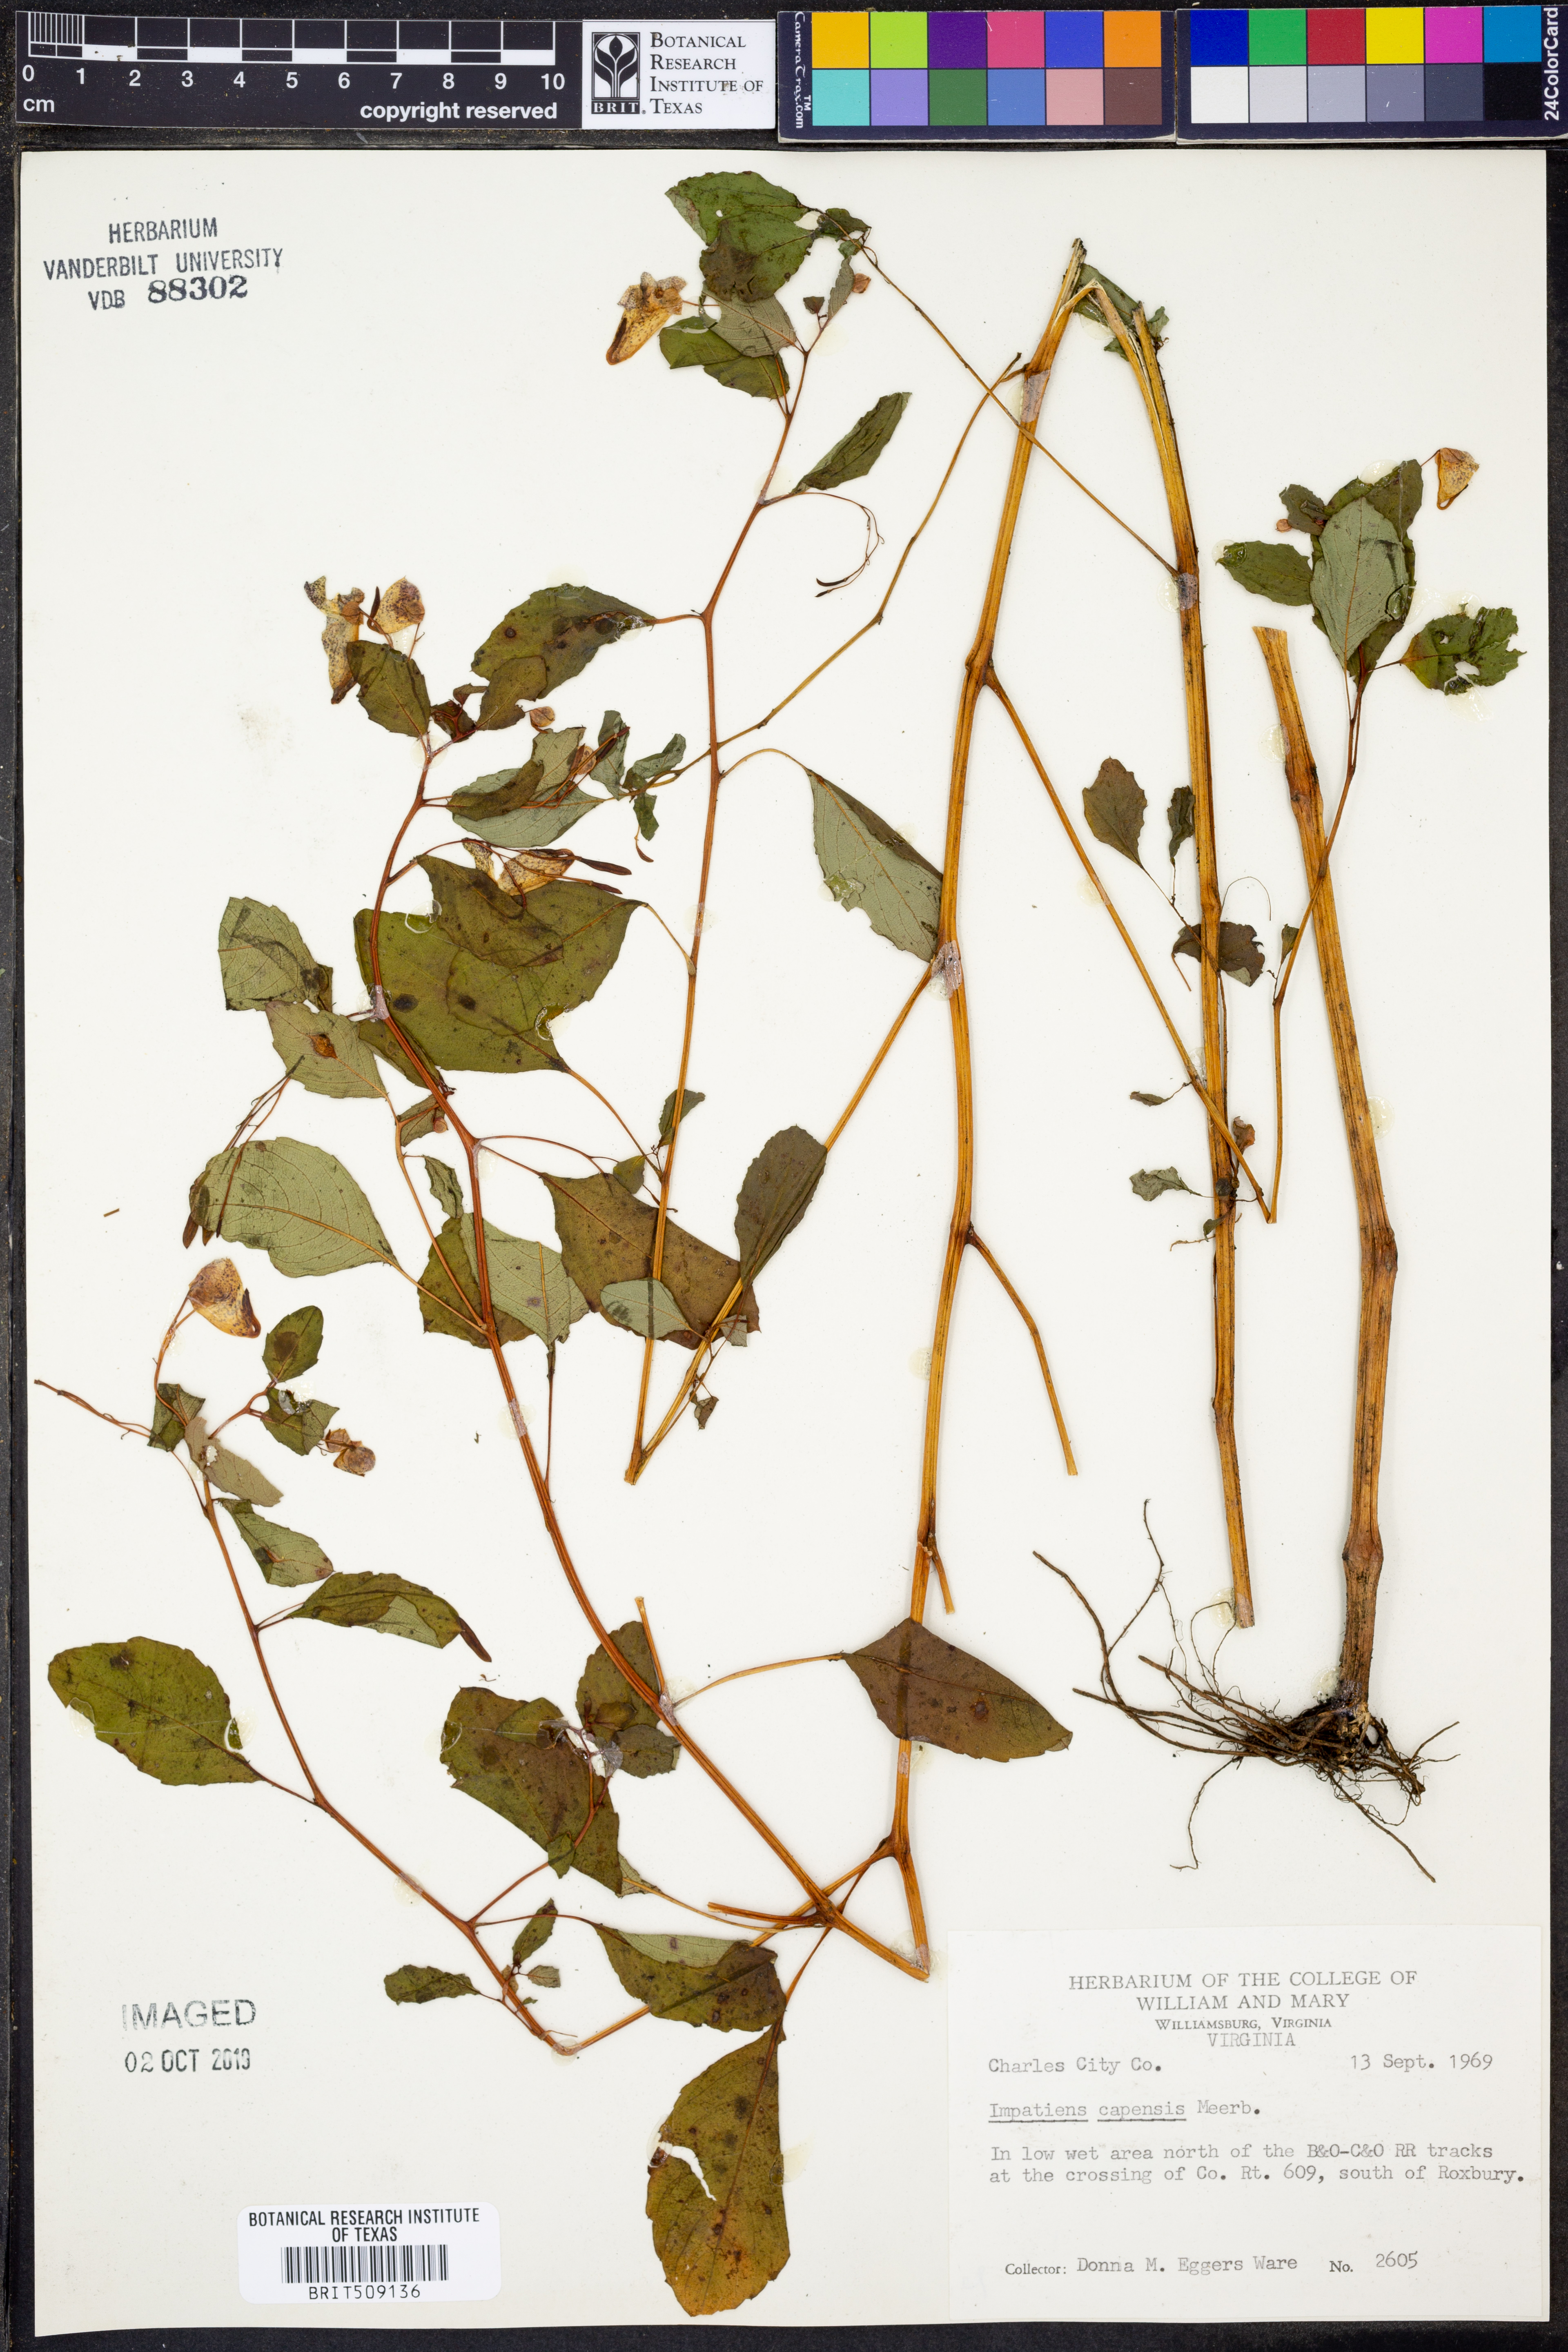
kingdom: Plantae
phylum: Tracheophyta
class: Magnoliopsida
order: Ericales
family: Balsaminaceae
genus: Impatiens
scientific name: Impatiens capensis
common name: Orange balsam
